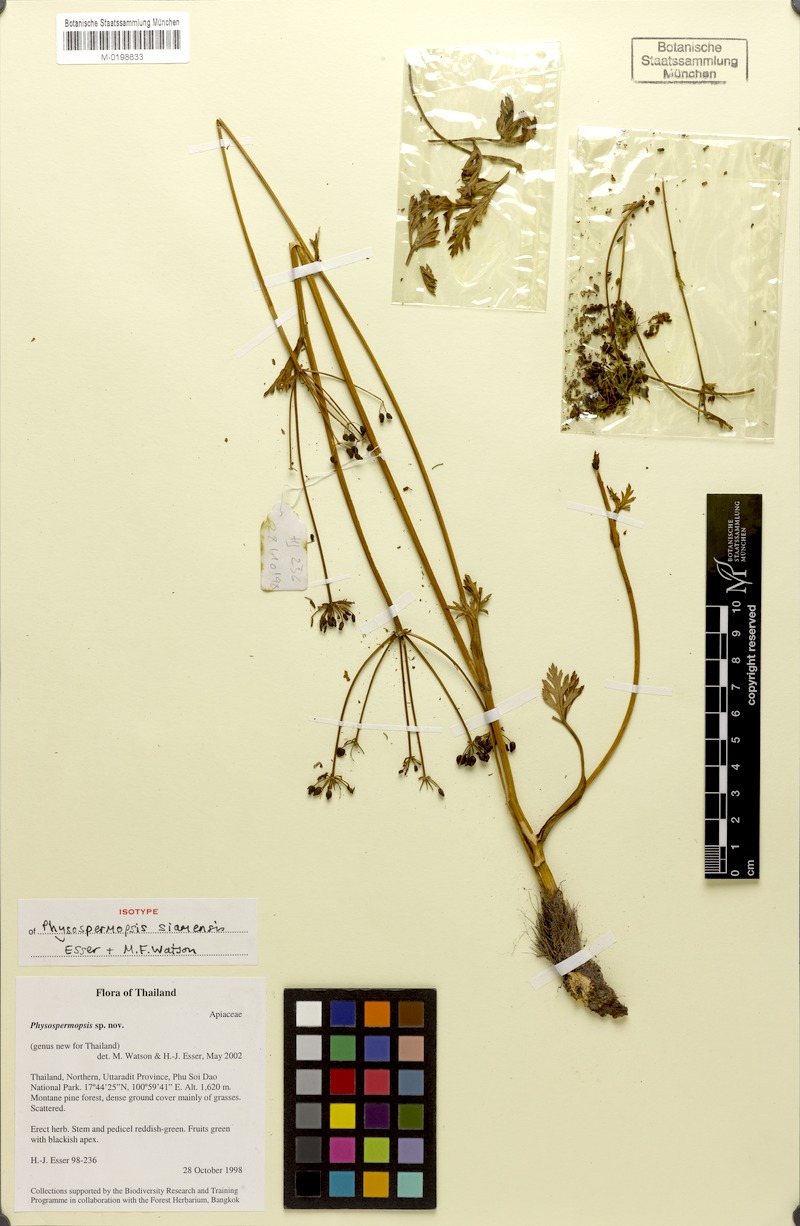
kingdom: Plantae
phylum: Tracheophyta
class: Magnoliopsida
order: Apiales
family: Apiaceae
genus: Physospermopsis
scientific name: Physospermopsis siamensis
